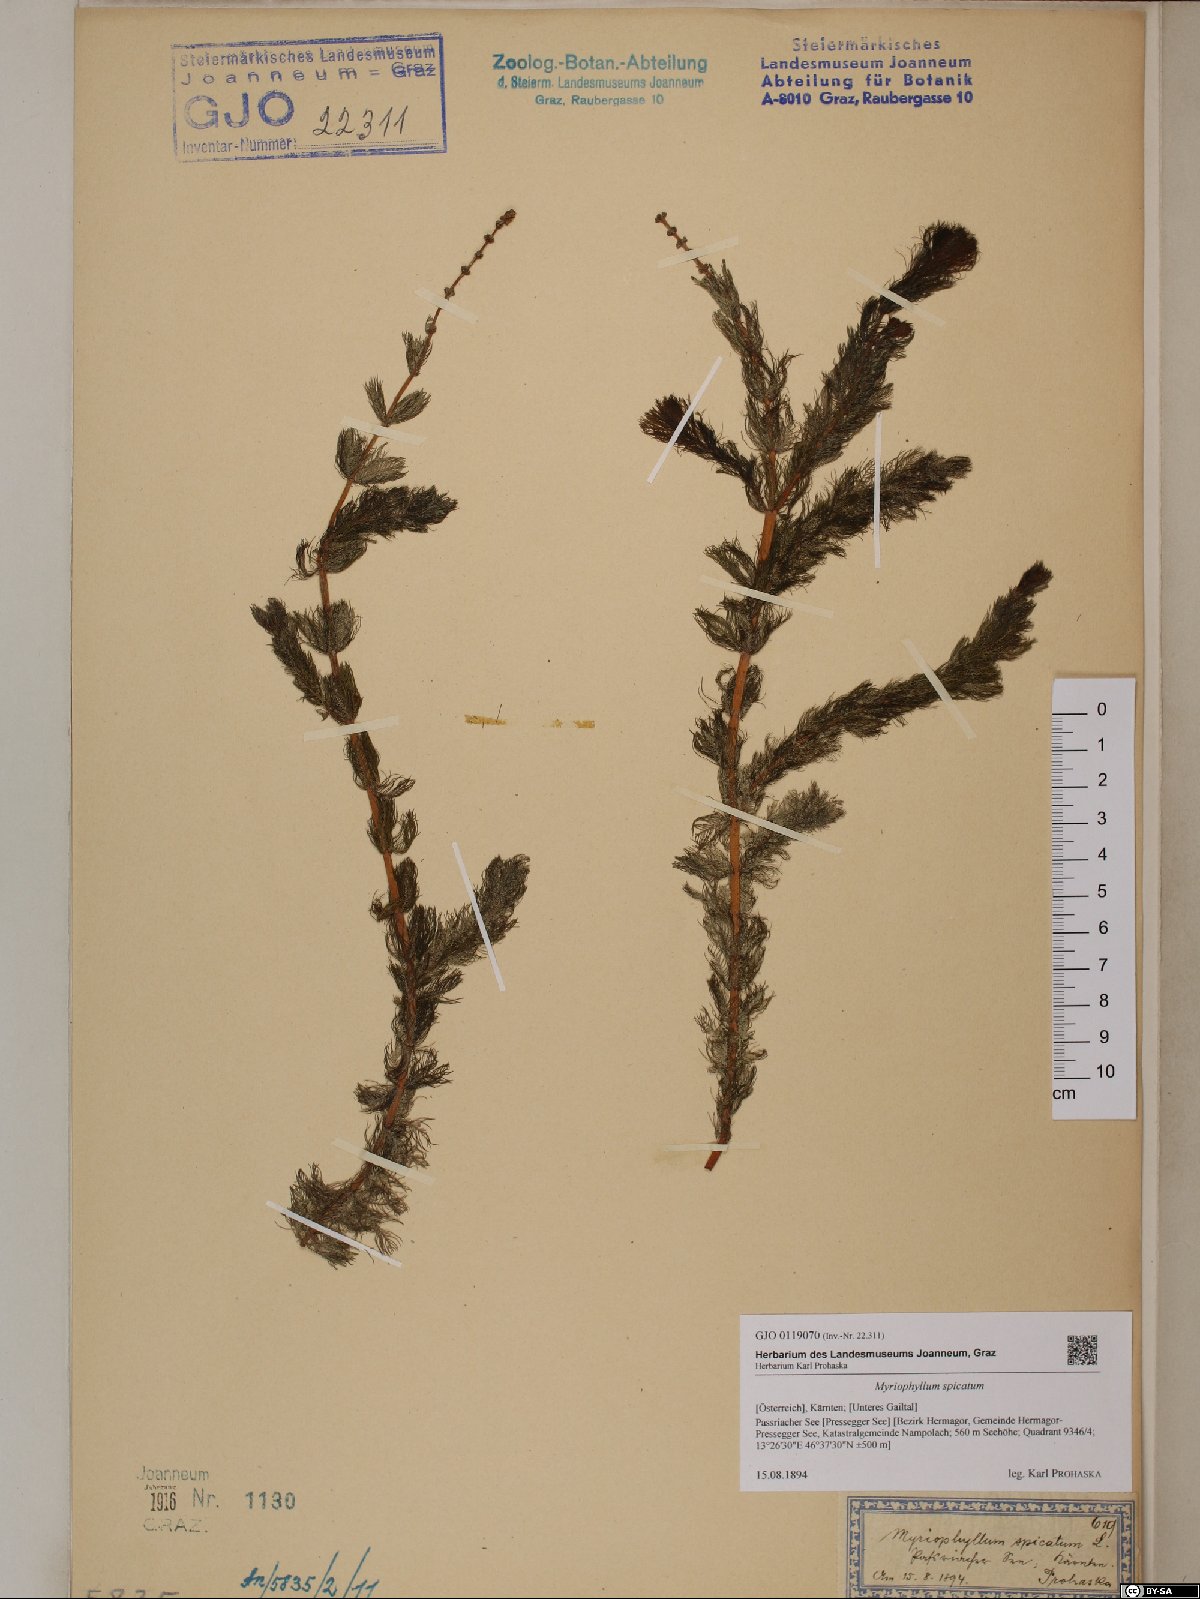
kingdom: Plantae
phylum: Tracheophyta
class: Magnoliopsida
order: Saxifragales
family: Haloragaceae
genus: Myriophyllum
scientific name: Myriophyllum spicatum
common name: Spiked water-milfoil
